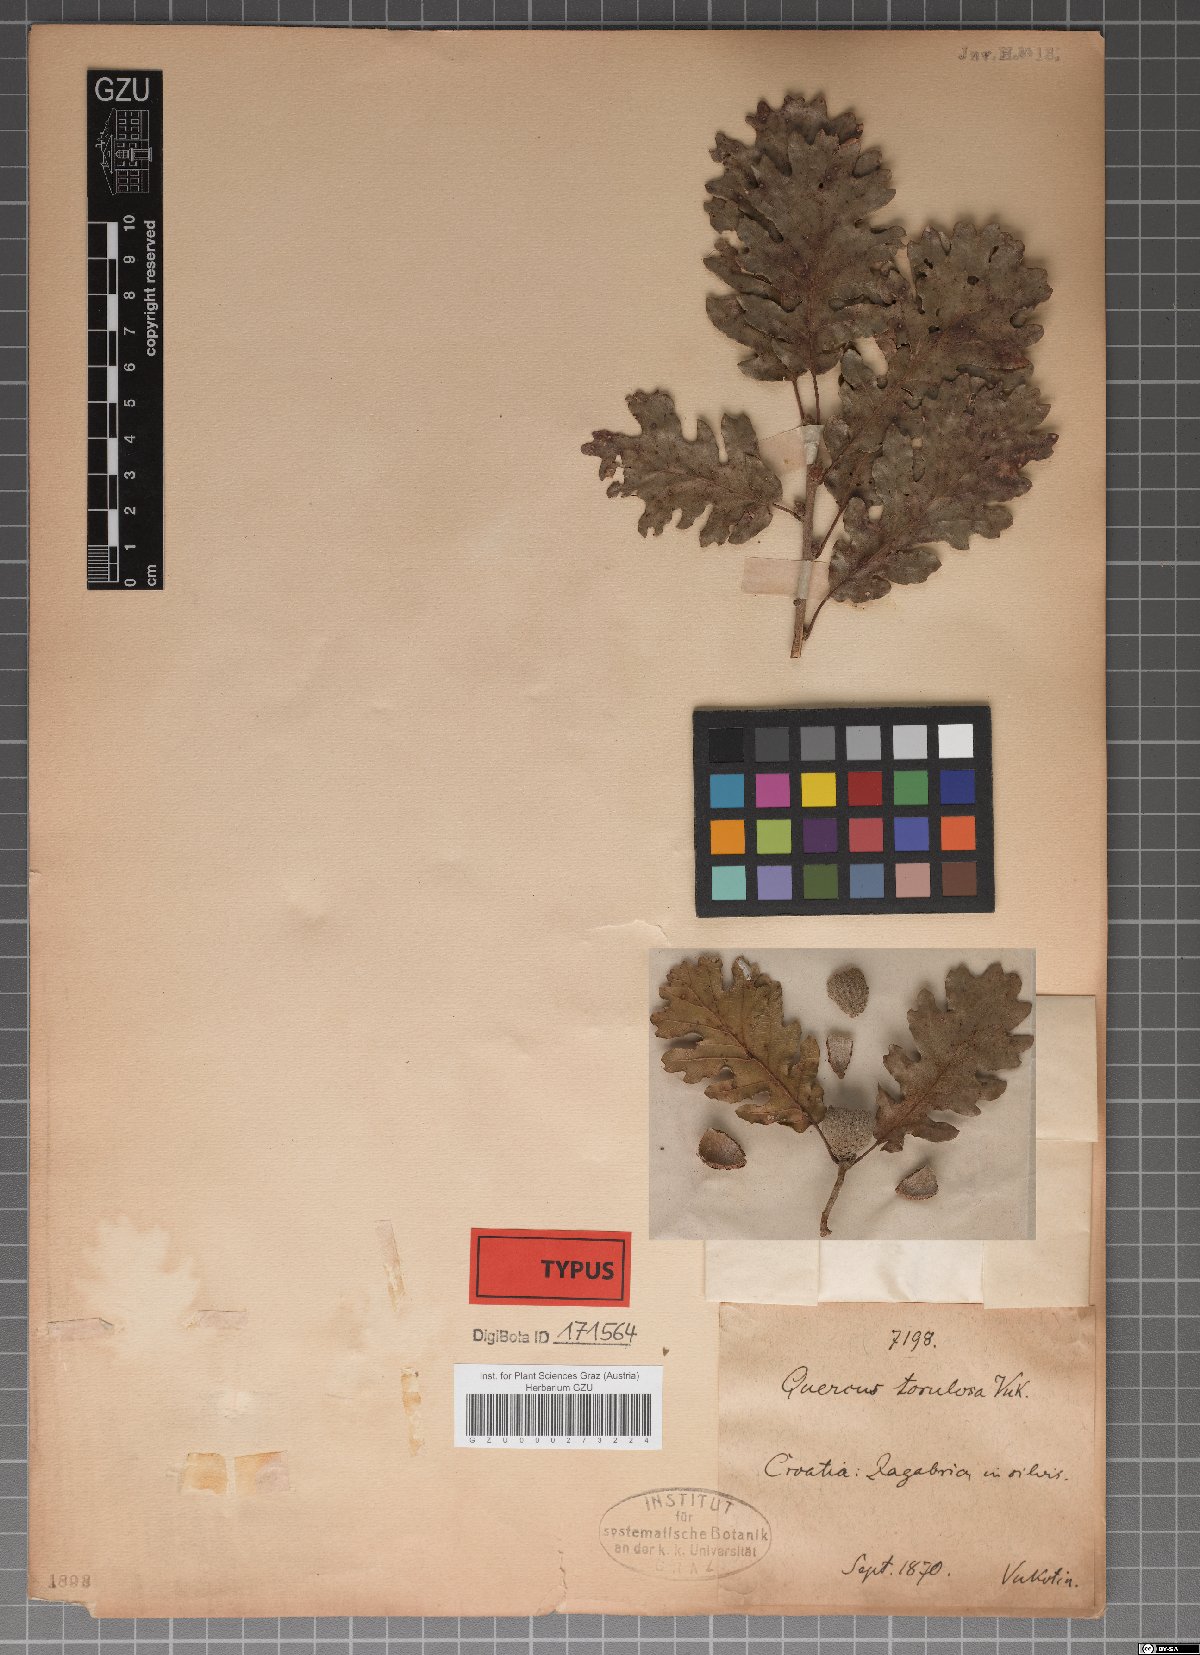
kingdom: Plantae
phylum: Tracheophyta
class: Magnoliopsida
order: Fagales
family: Fagaceae
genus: Quercus
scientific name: Quercus pubescens
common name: Downy oak
